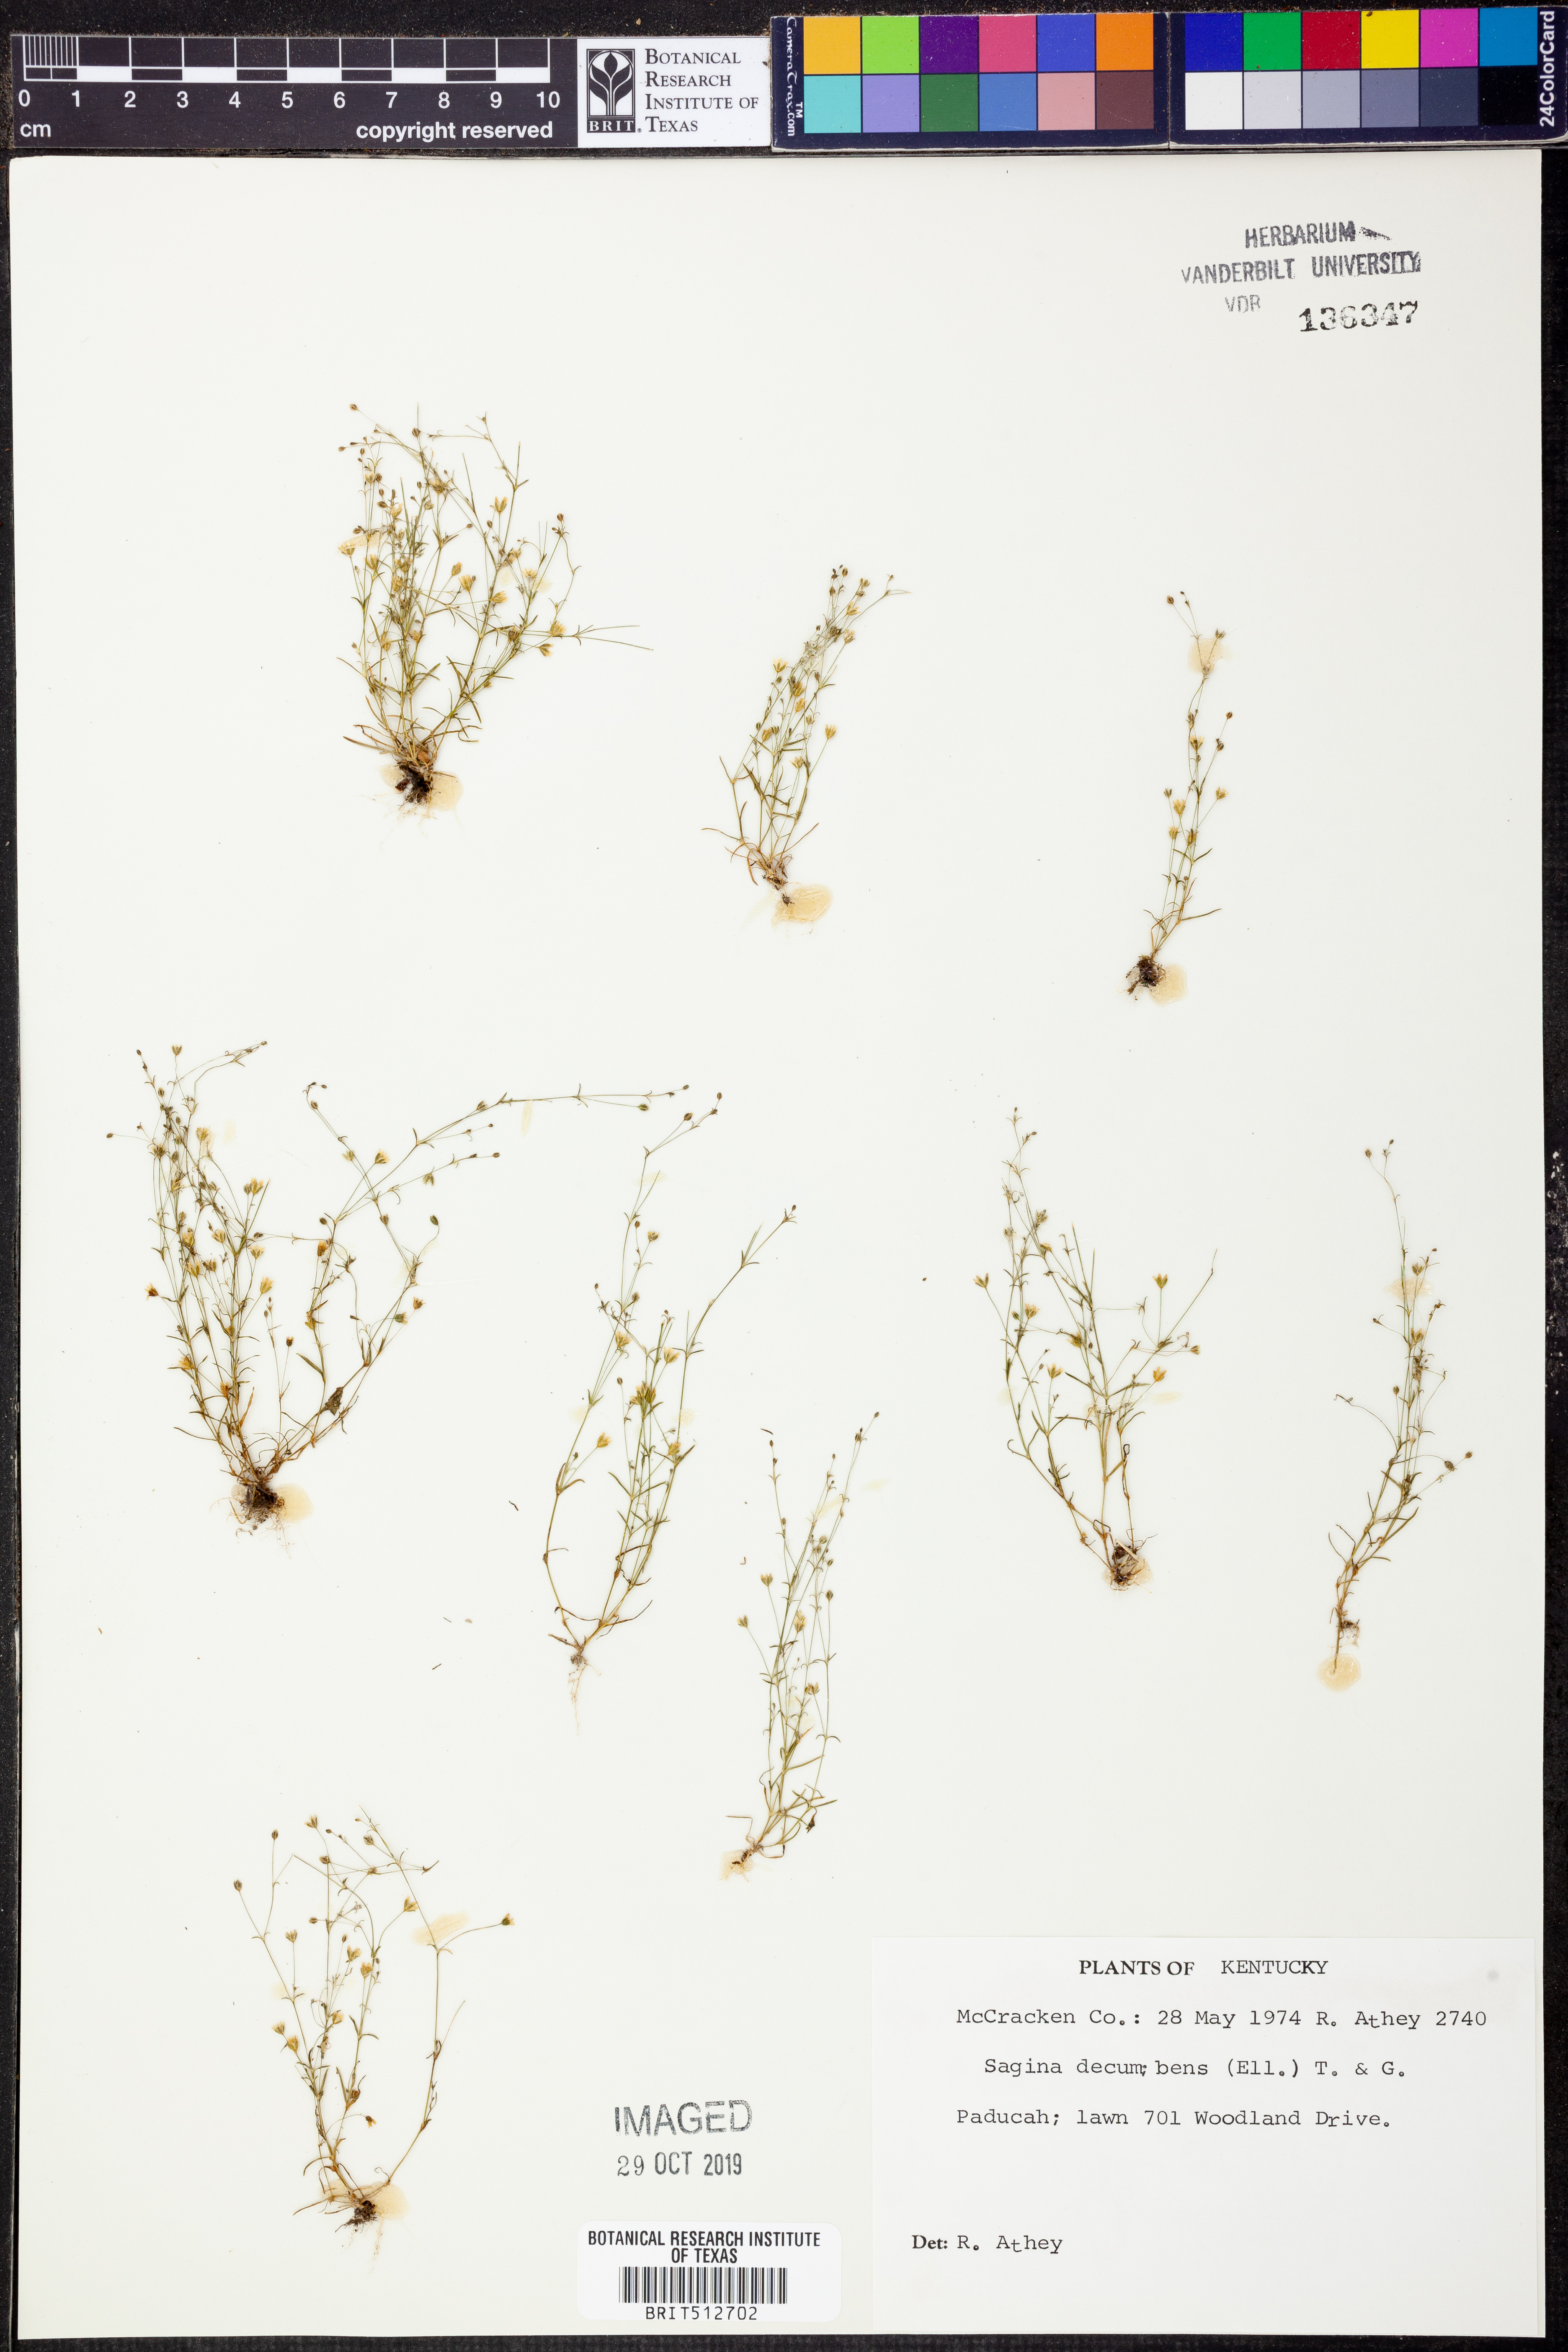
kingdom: Plantae
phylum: Tracheophyta
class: Magnoliopsida
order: Caryophyllales
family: Caryophyllaceae
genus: Sagina
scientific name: Sagina decumbens
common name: Decumbent pearlwort
